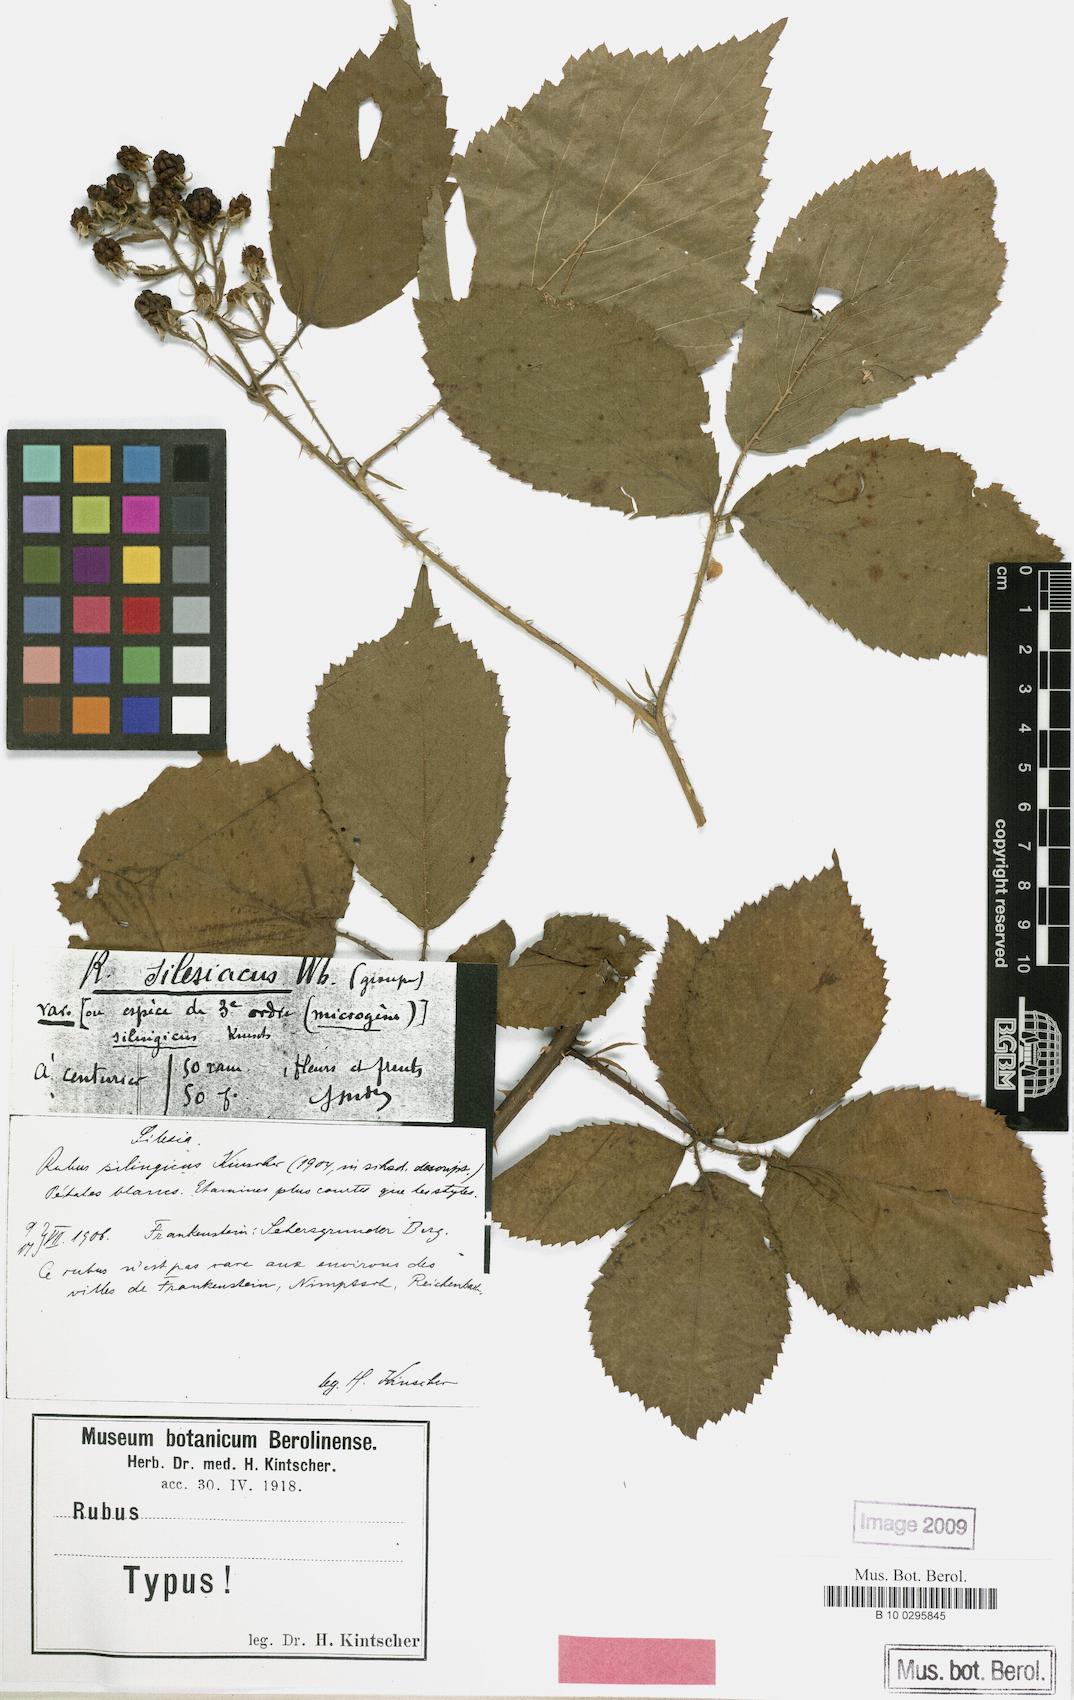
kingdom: Plantae
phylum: Tracheophyta
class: Magnoliopsida
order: Rosales
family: Rosaceae
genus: Rubus
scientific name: Rubus chlorothyrsos
